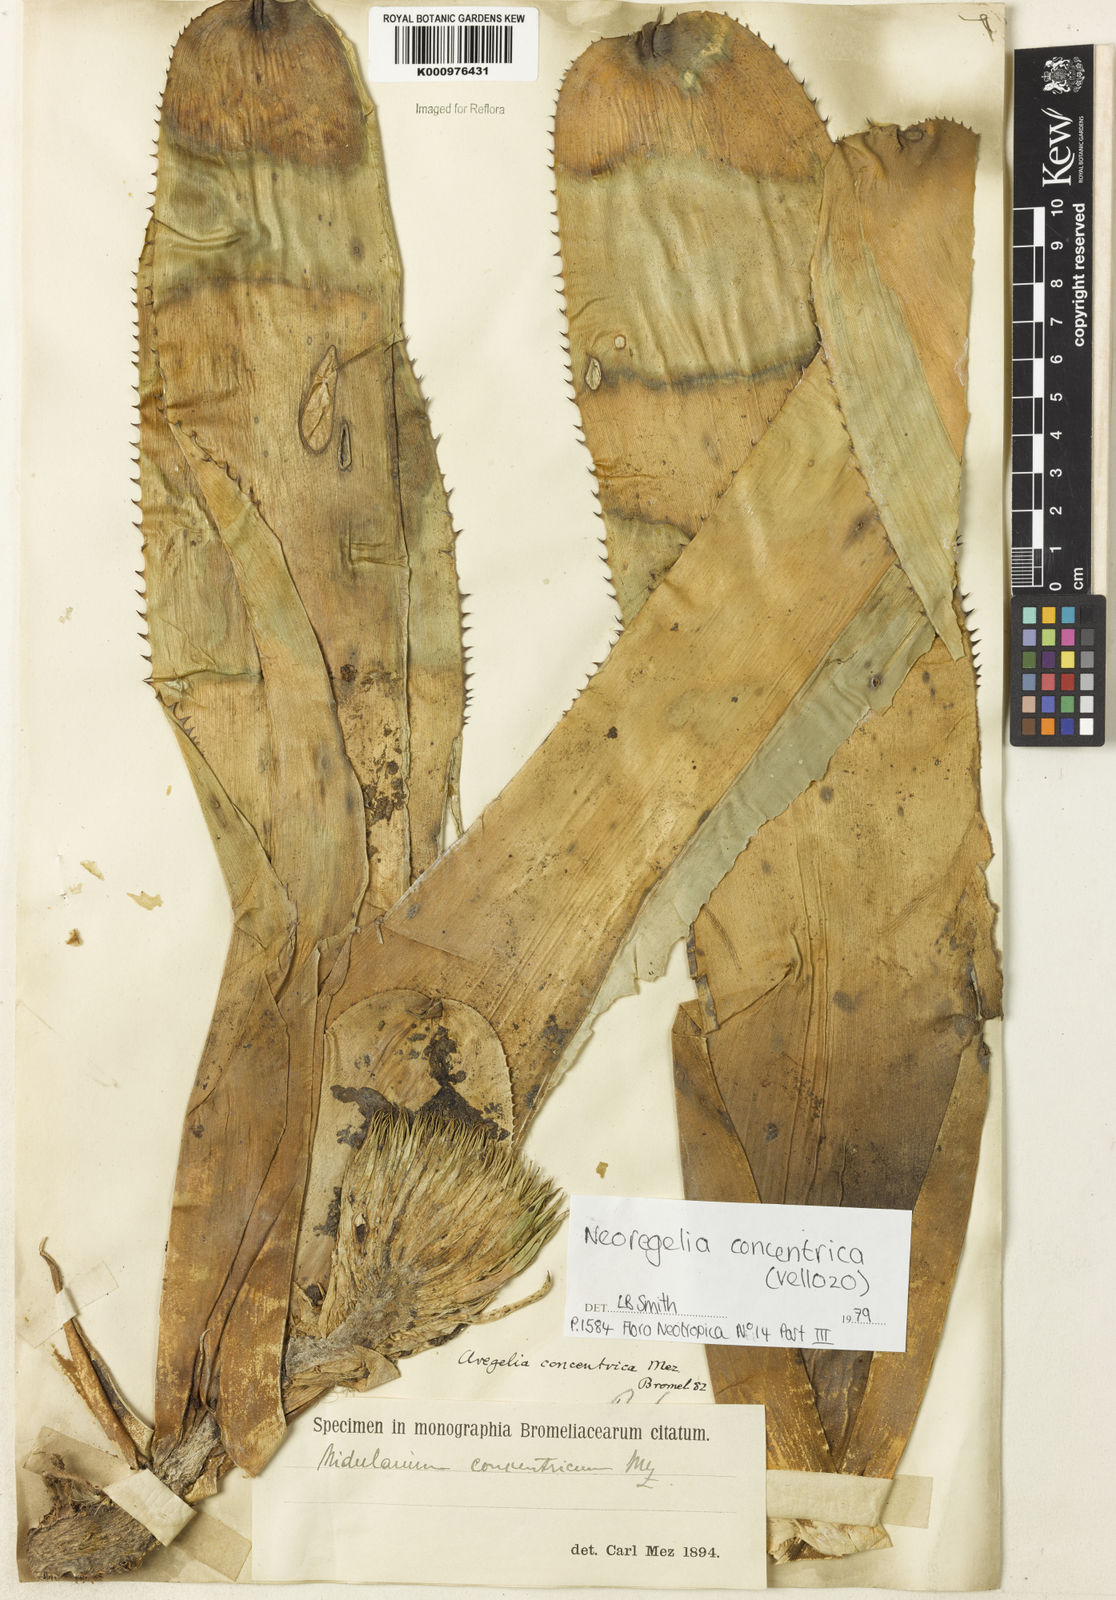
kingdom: Plantae
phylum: Tracheophyta
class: Liliopsida
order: Poales
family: Bromeliaceae
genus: Neoregelia
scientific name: Neoregelia concentrica
